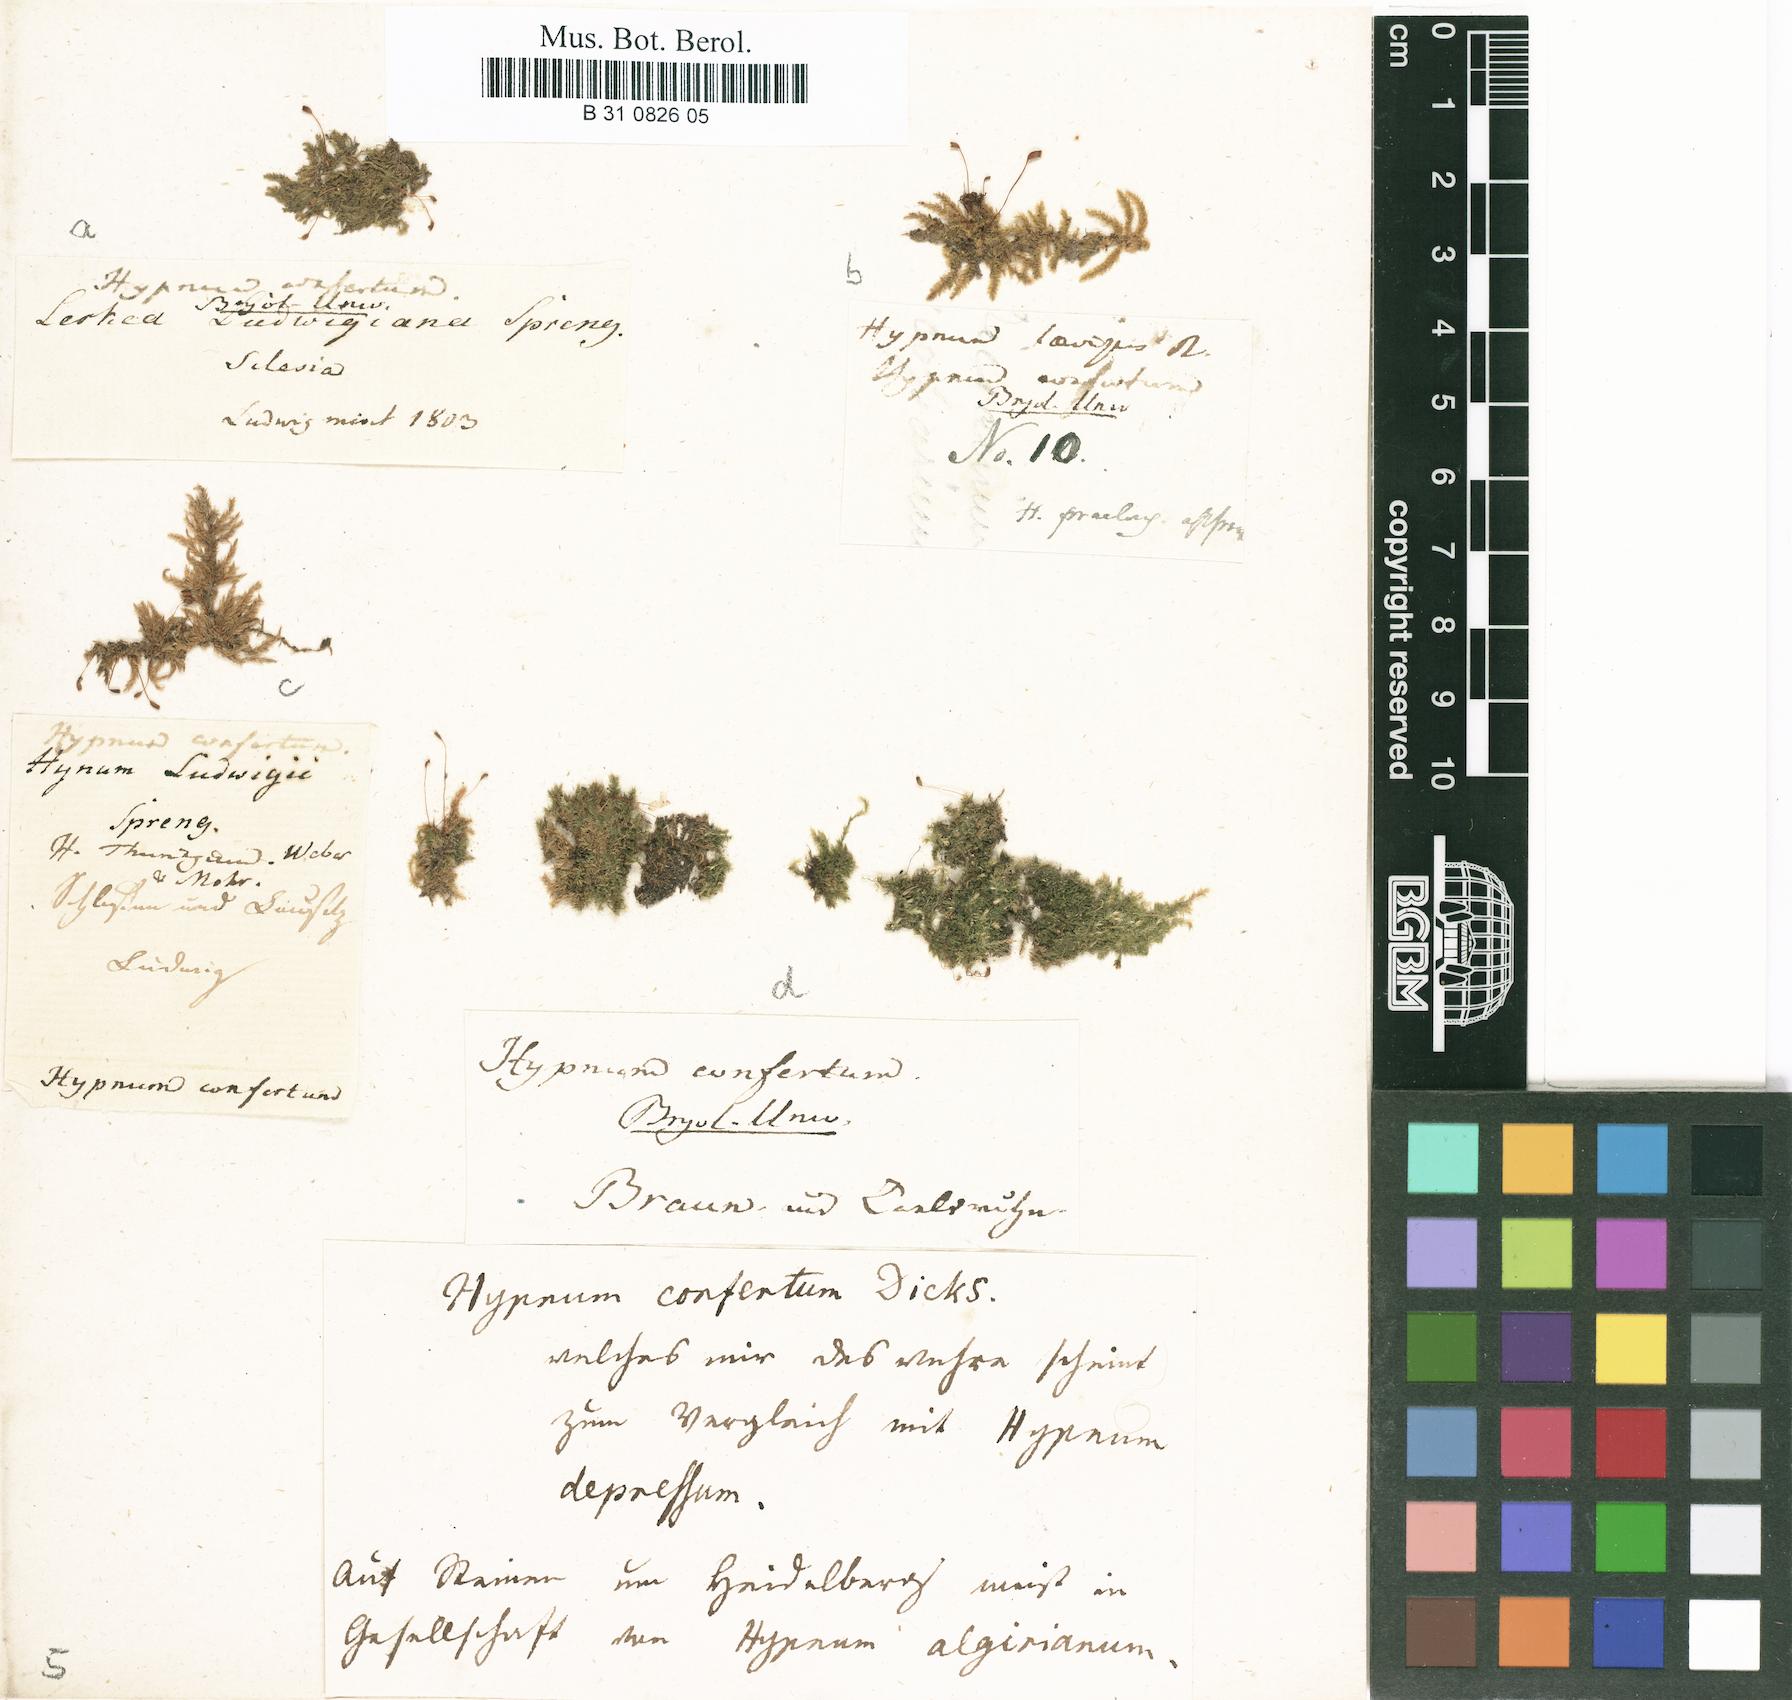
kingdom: Plantae
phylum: Bryophyta
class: Bryopsida
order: Hypnales
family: Brachytheciaceae
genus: Rhynchostegium
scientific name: Rhynchostegium confertum
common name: Clustered feather-moss
